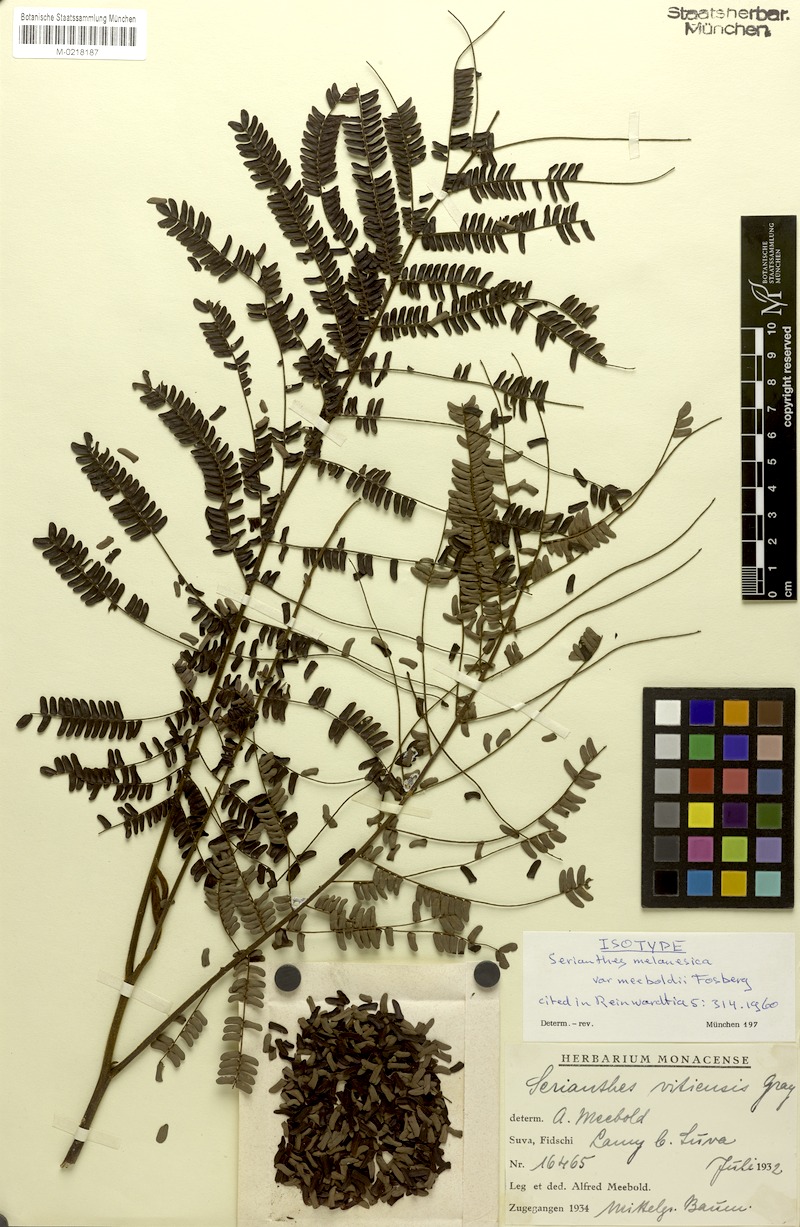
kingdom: Plantae
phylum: Tracheophyta
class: Magnoliopsida
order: Fabales
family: Fabaceae
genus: Serianthes
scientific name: Serianthes melanesica
